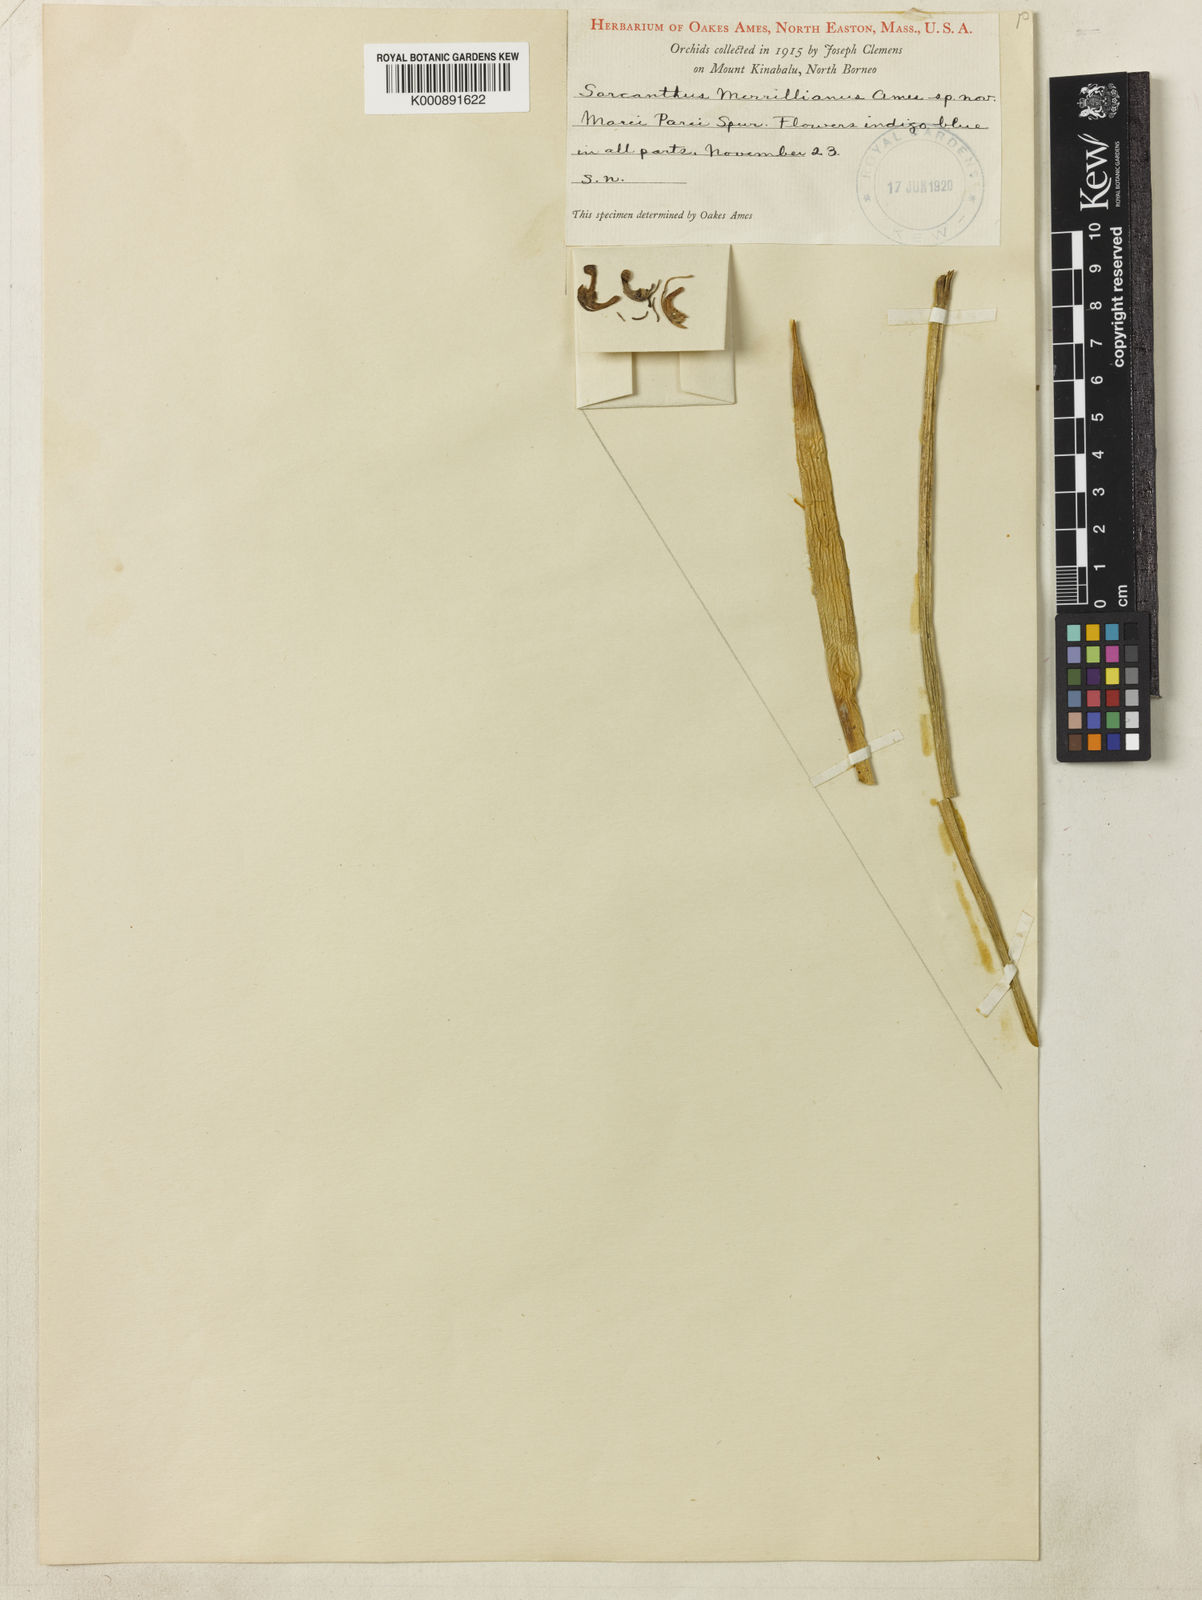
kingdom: Plantae
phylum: Tracheophyta
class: Liliopsida
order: Asparagales
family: Orchidaceae
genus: Ascocentrum
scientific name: Ascocentrum
